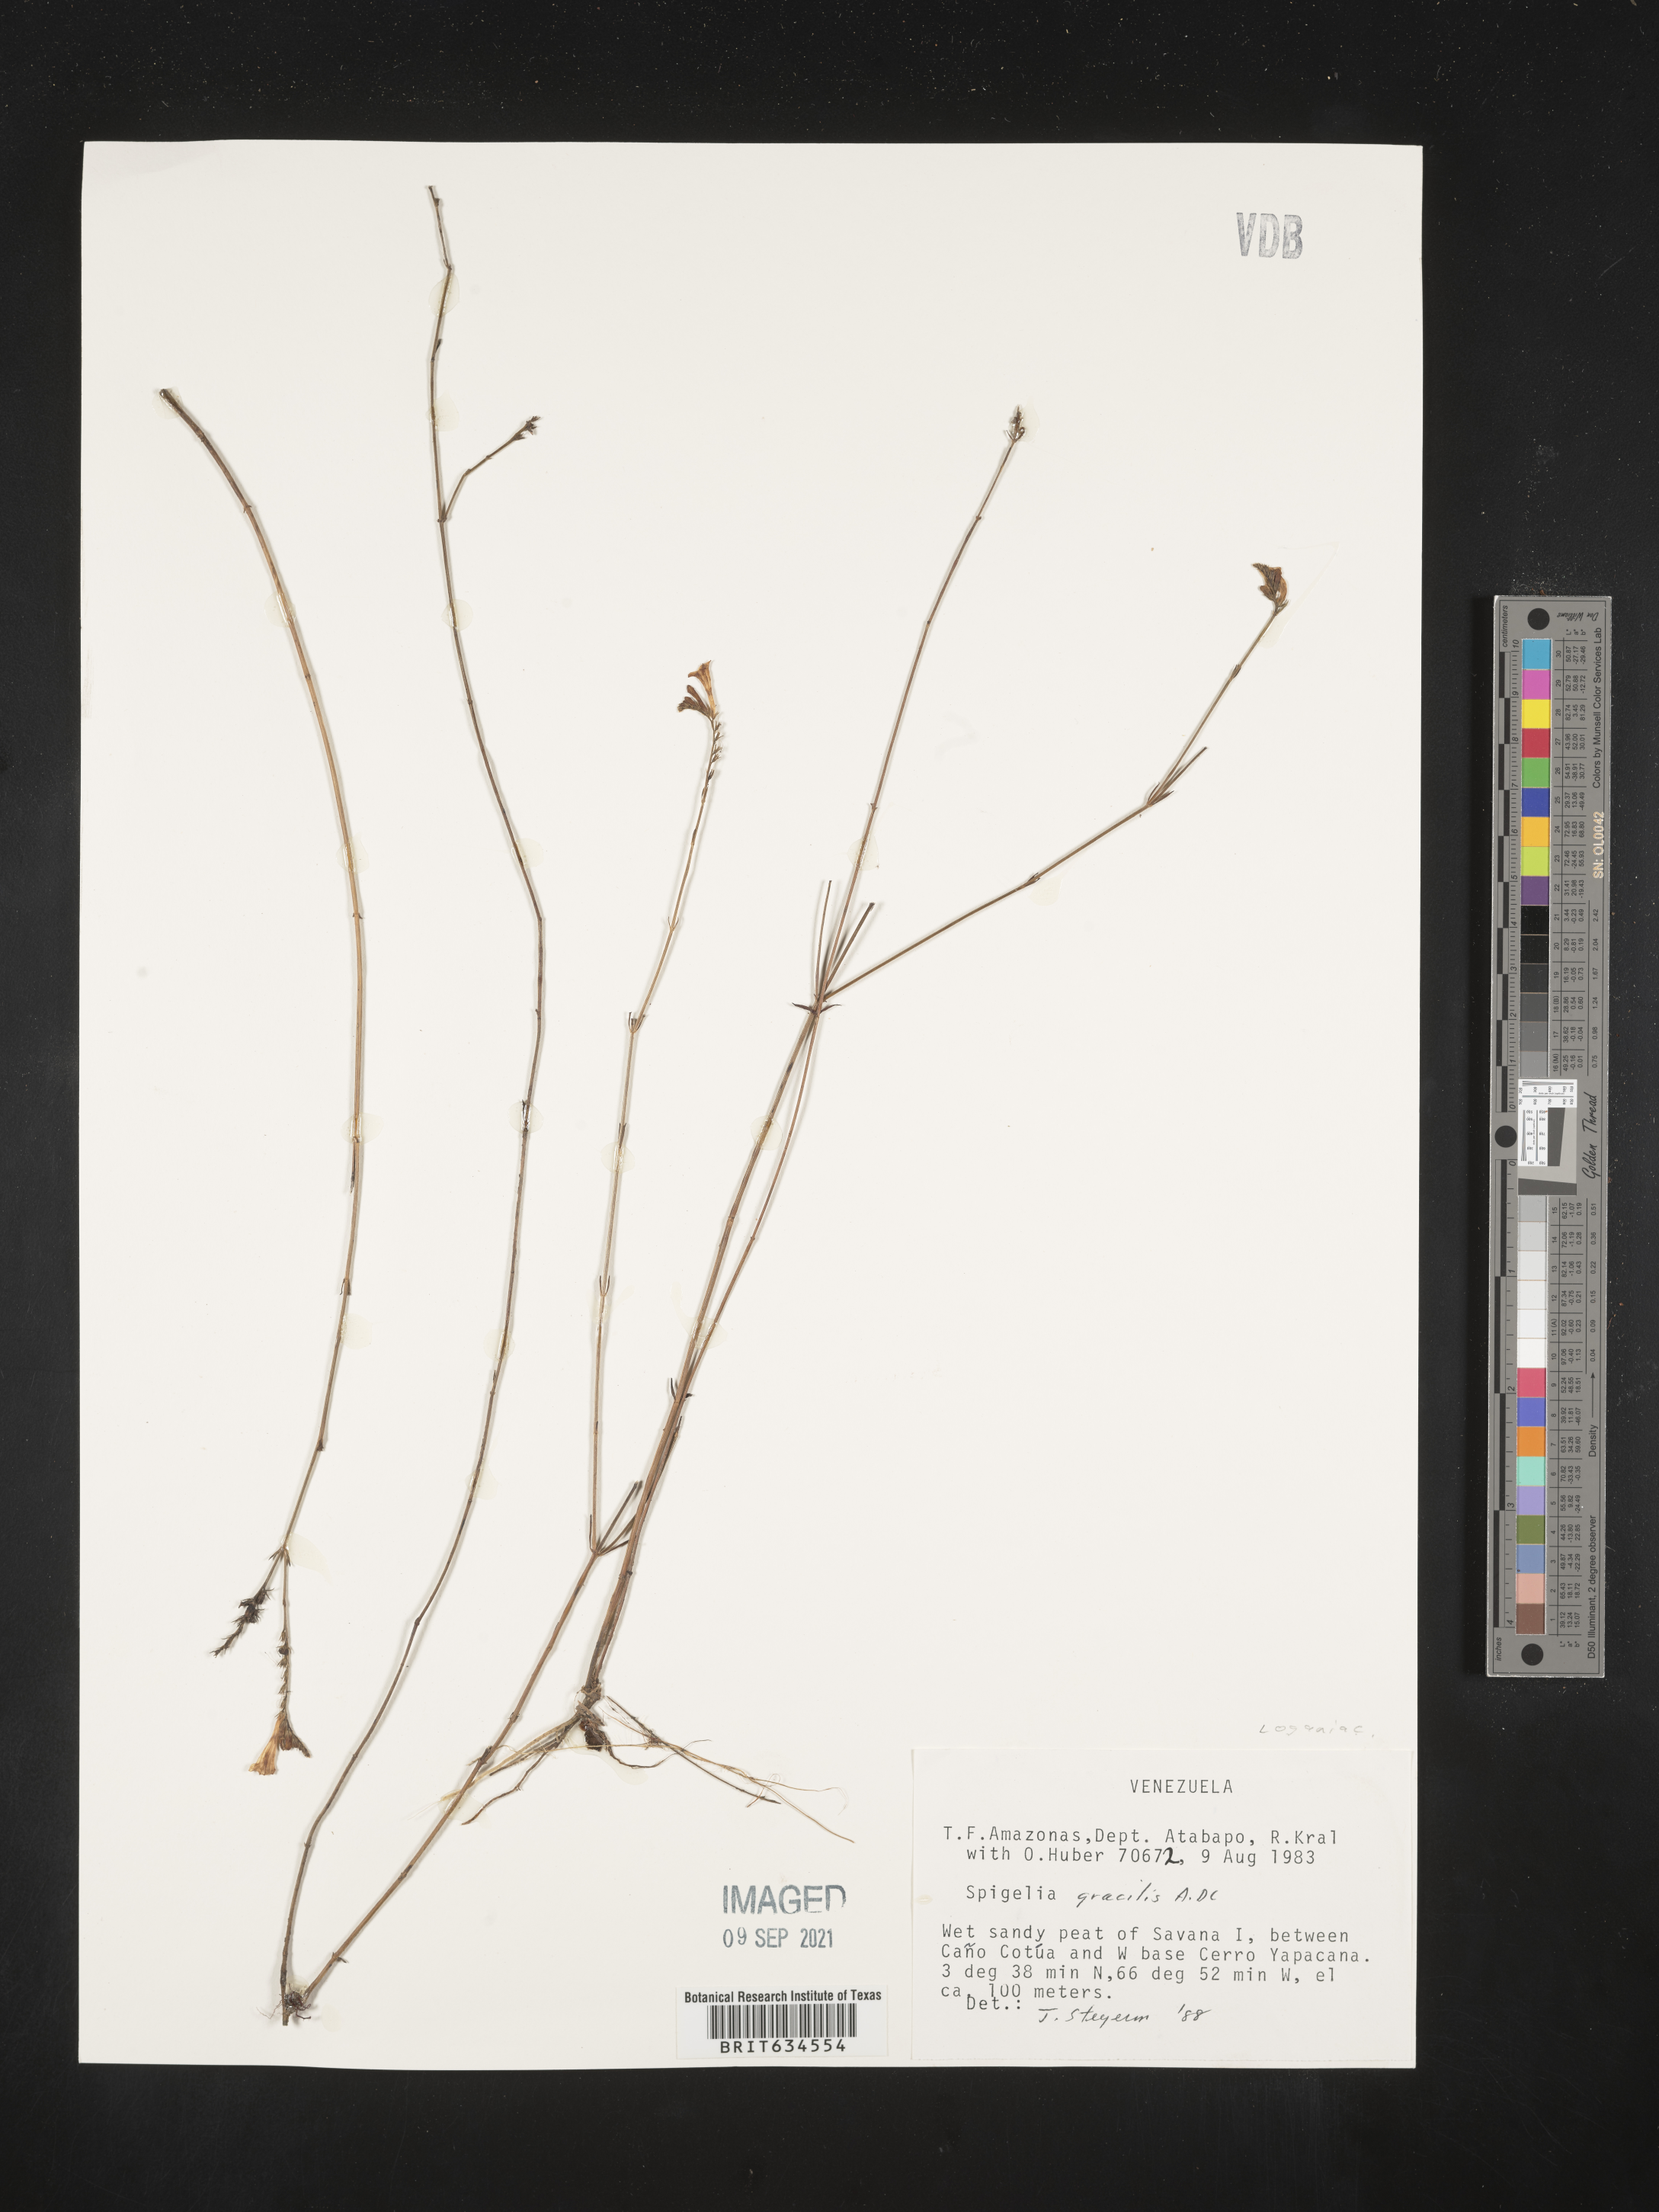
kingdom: Plantae
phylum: Tracheophyta
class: Magnoliopsida
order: Gentianales
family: Loganiaceae
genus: Spigelia
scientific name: Spigelia
